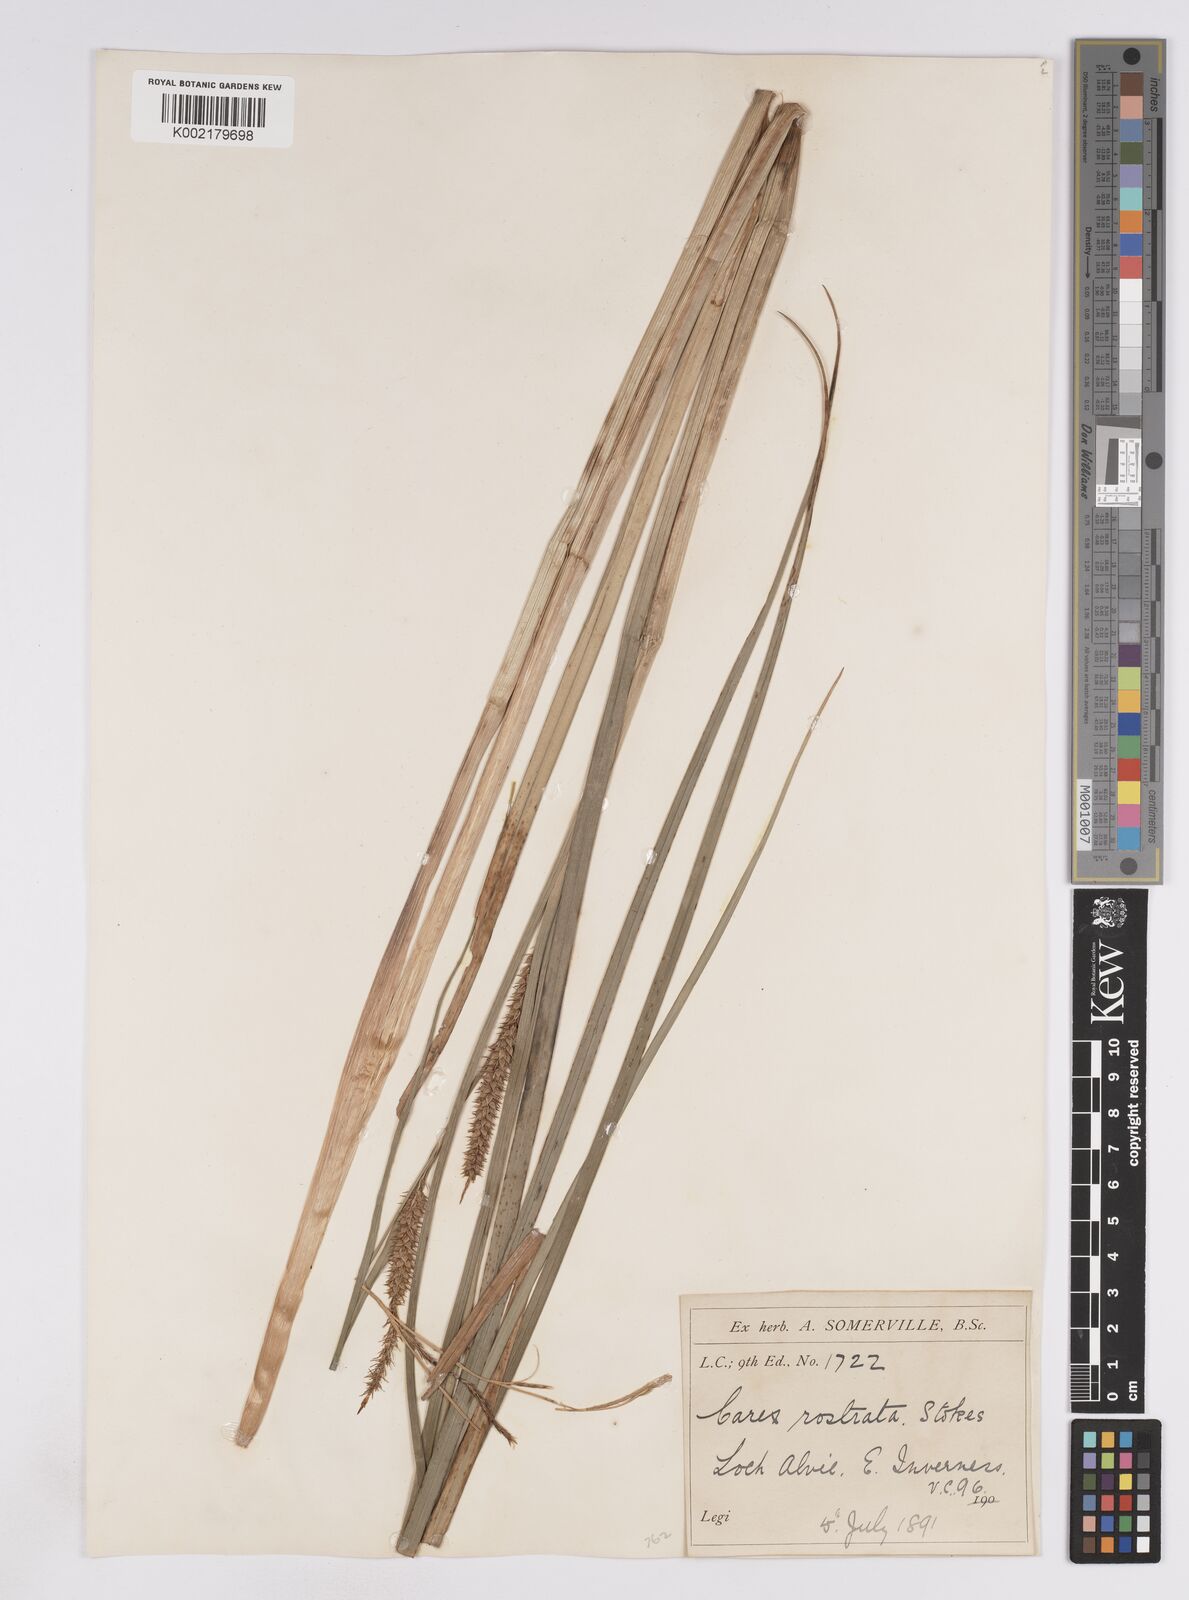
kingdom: Plantae
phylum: Tracheophyta
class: Liliopsida
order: Poales
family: Cyperaceae
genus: Carex
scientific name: Carex rostrata
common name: Bottle sedge
